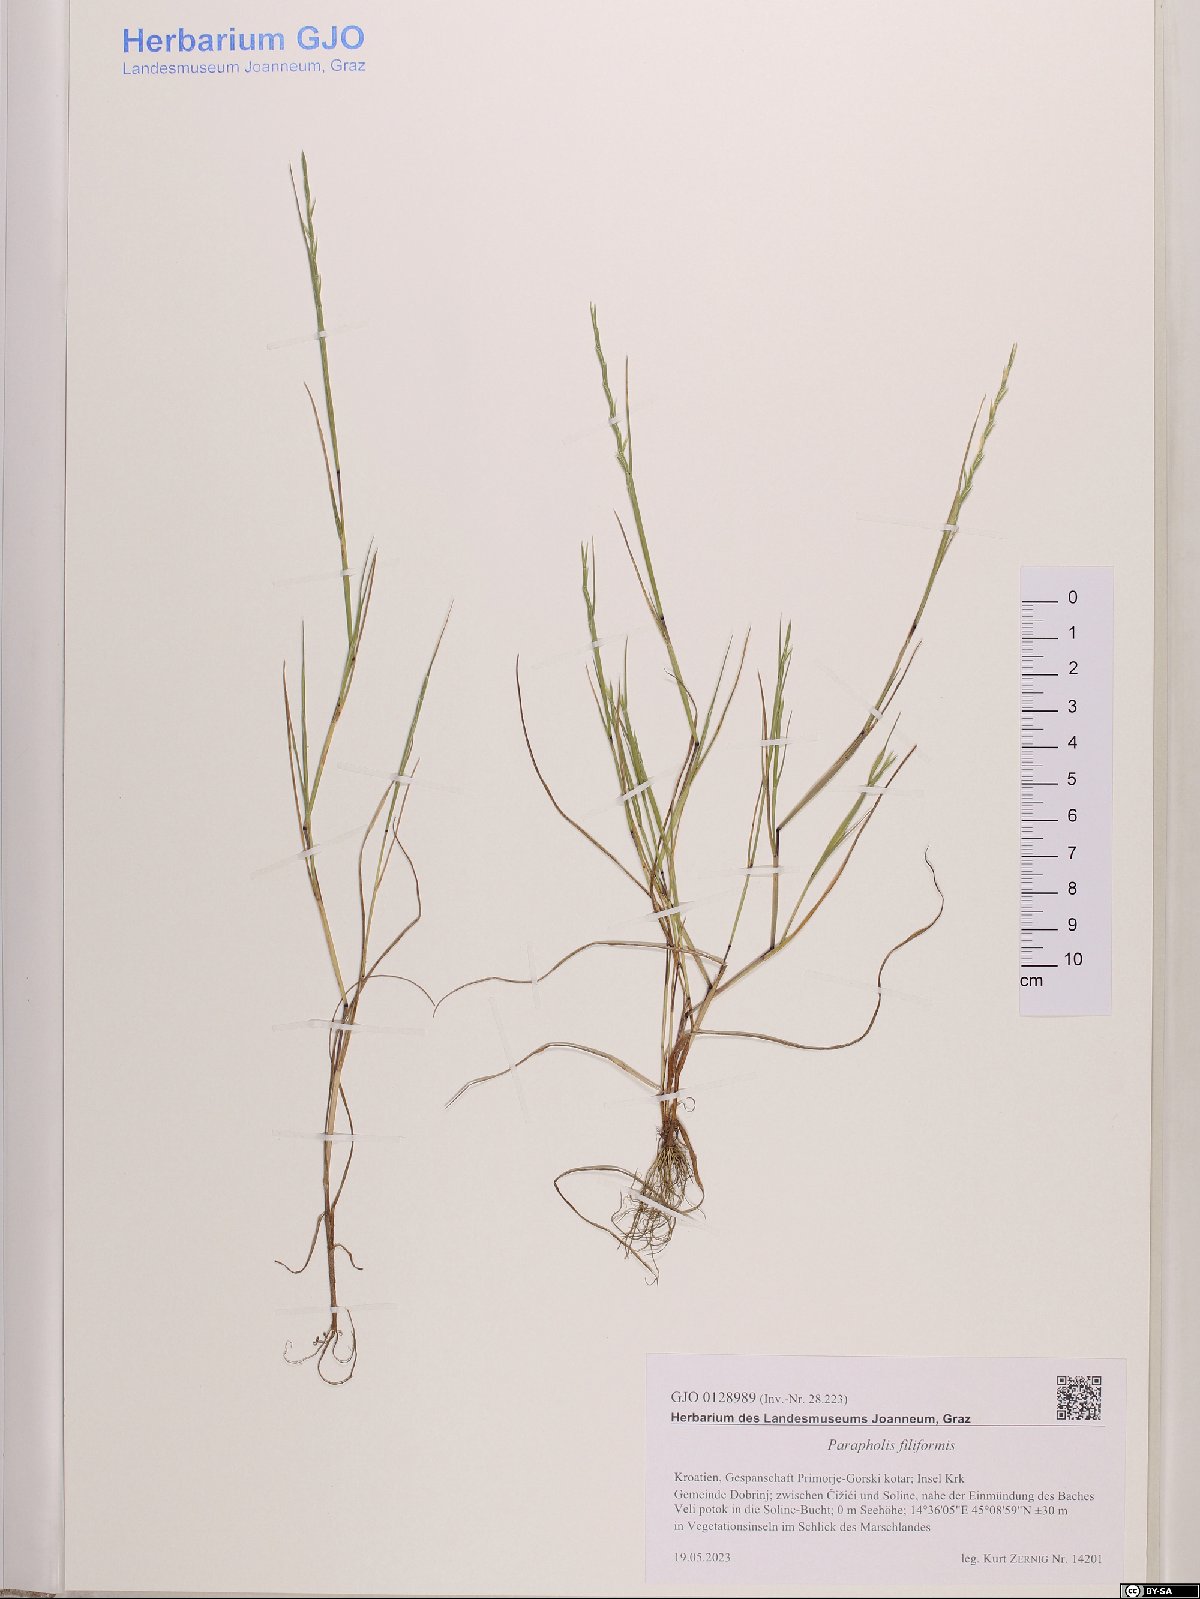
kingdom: Plantae
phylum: Tracheophyta
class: Liliopsida
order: Poales
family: Poaceae
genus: Parapholis
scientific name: Parapholis filiformis
